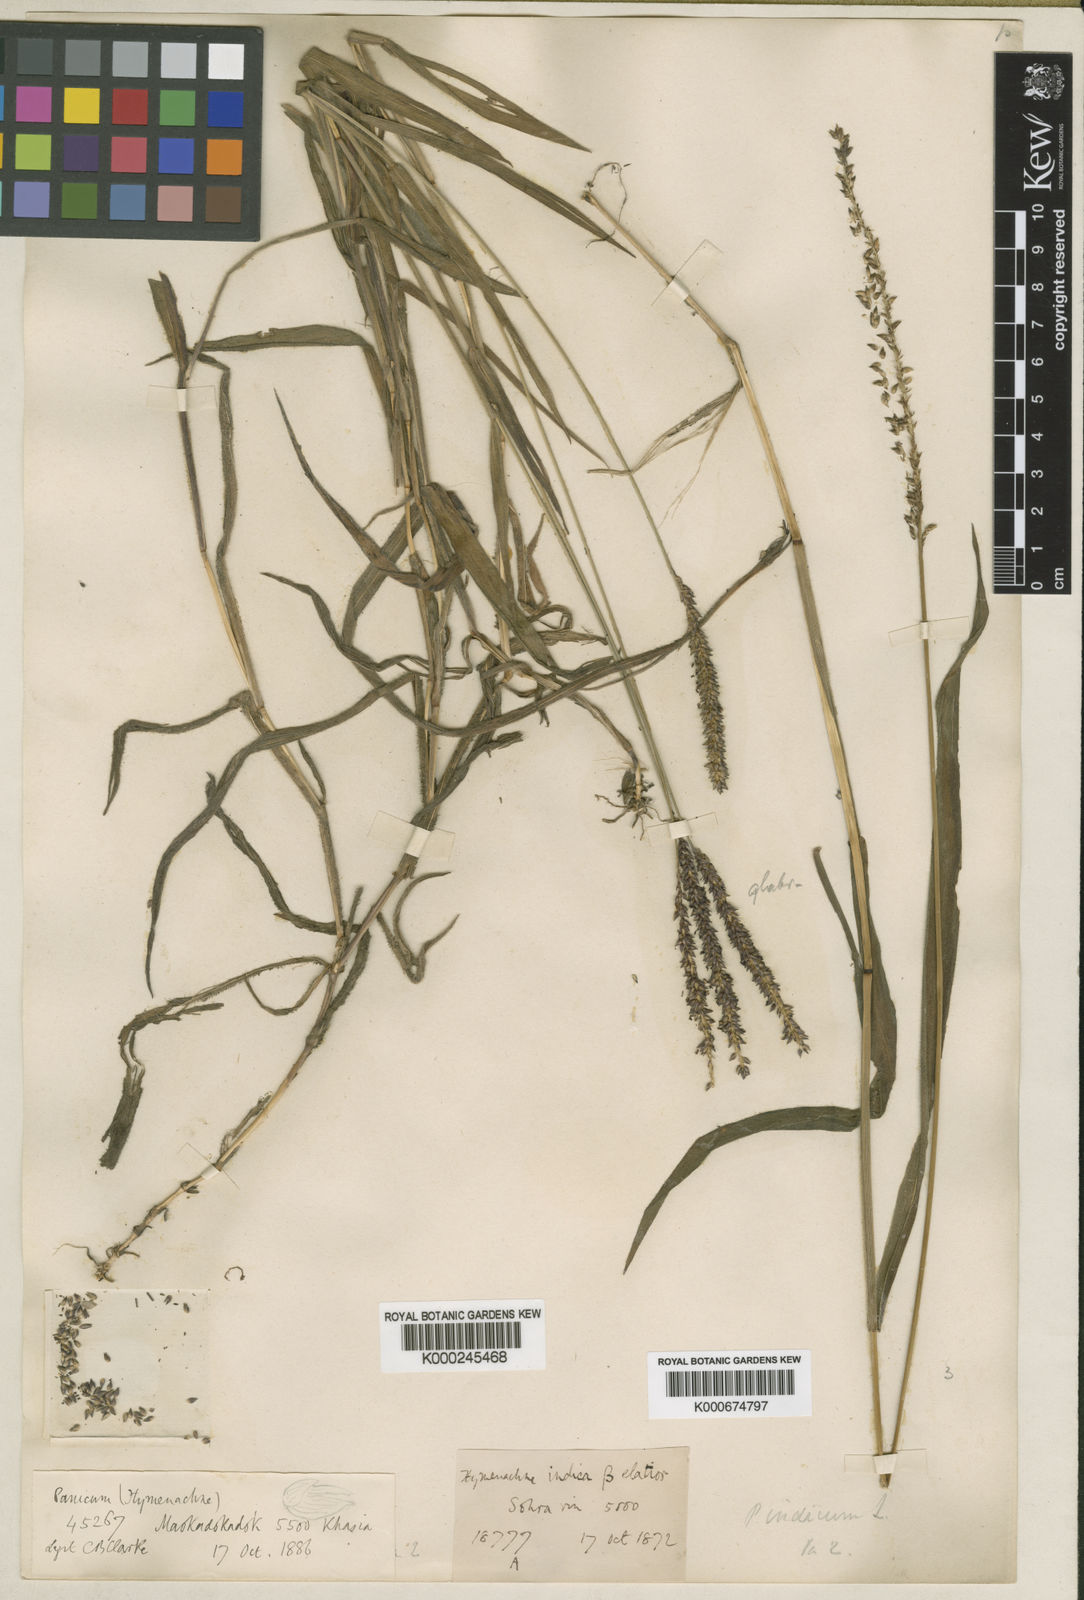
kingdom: Plantae
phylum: Tracheophyta
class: Liliopsida
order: Poales
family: Poaceae
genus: Sacciolepis
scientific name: Sacciolepis indica
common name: Glenwoodgrass
